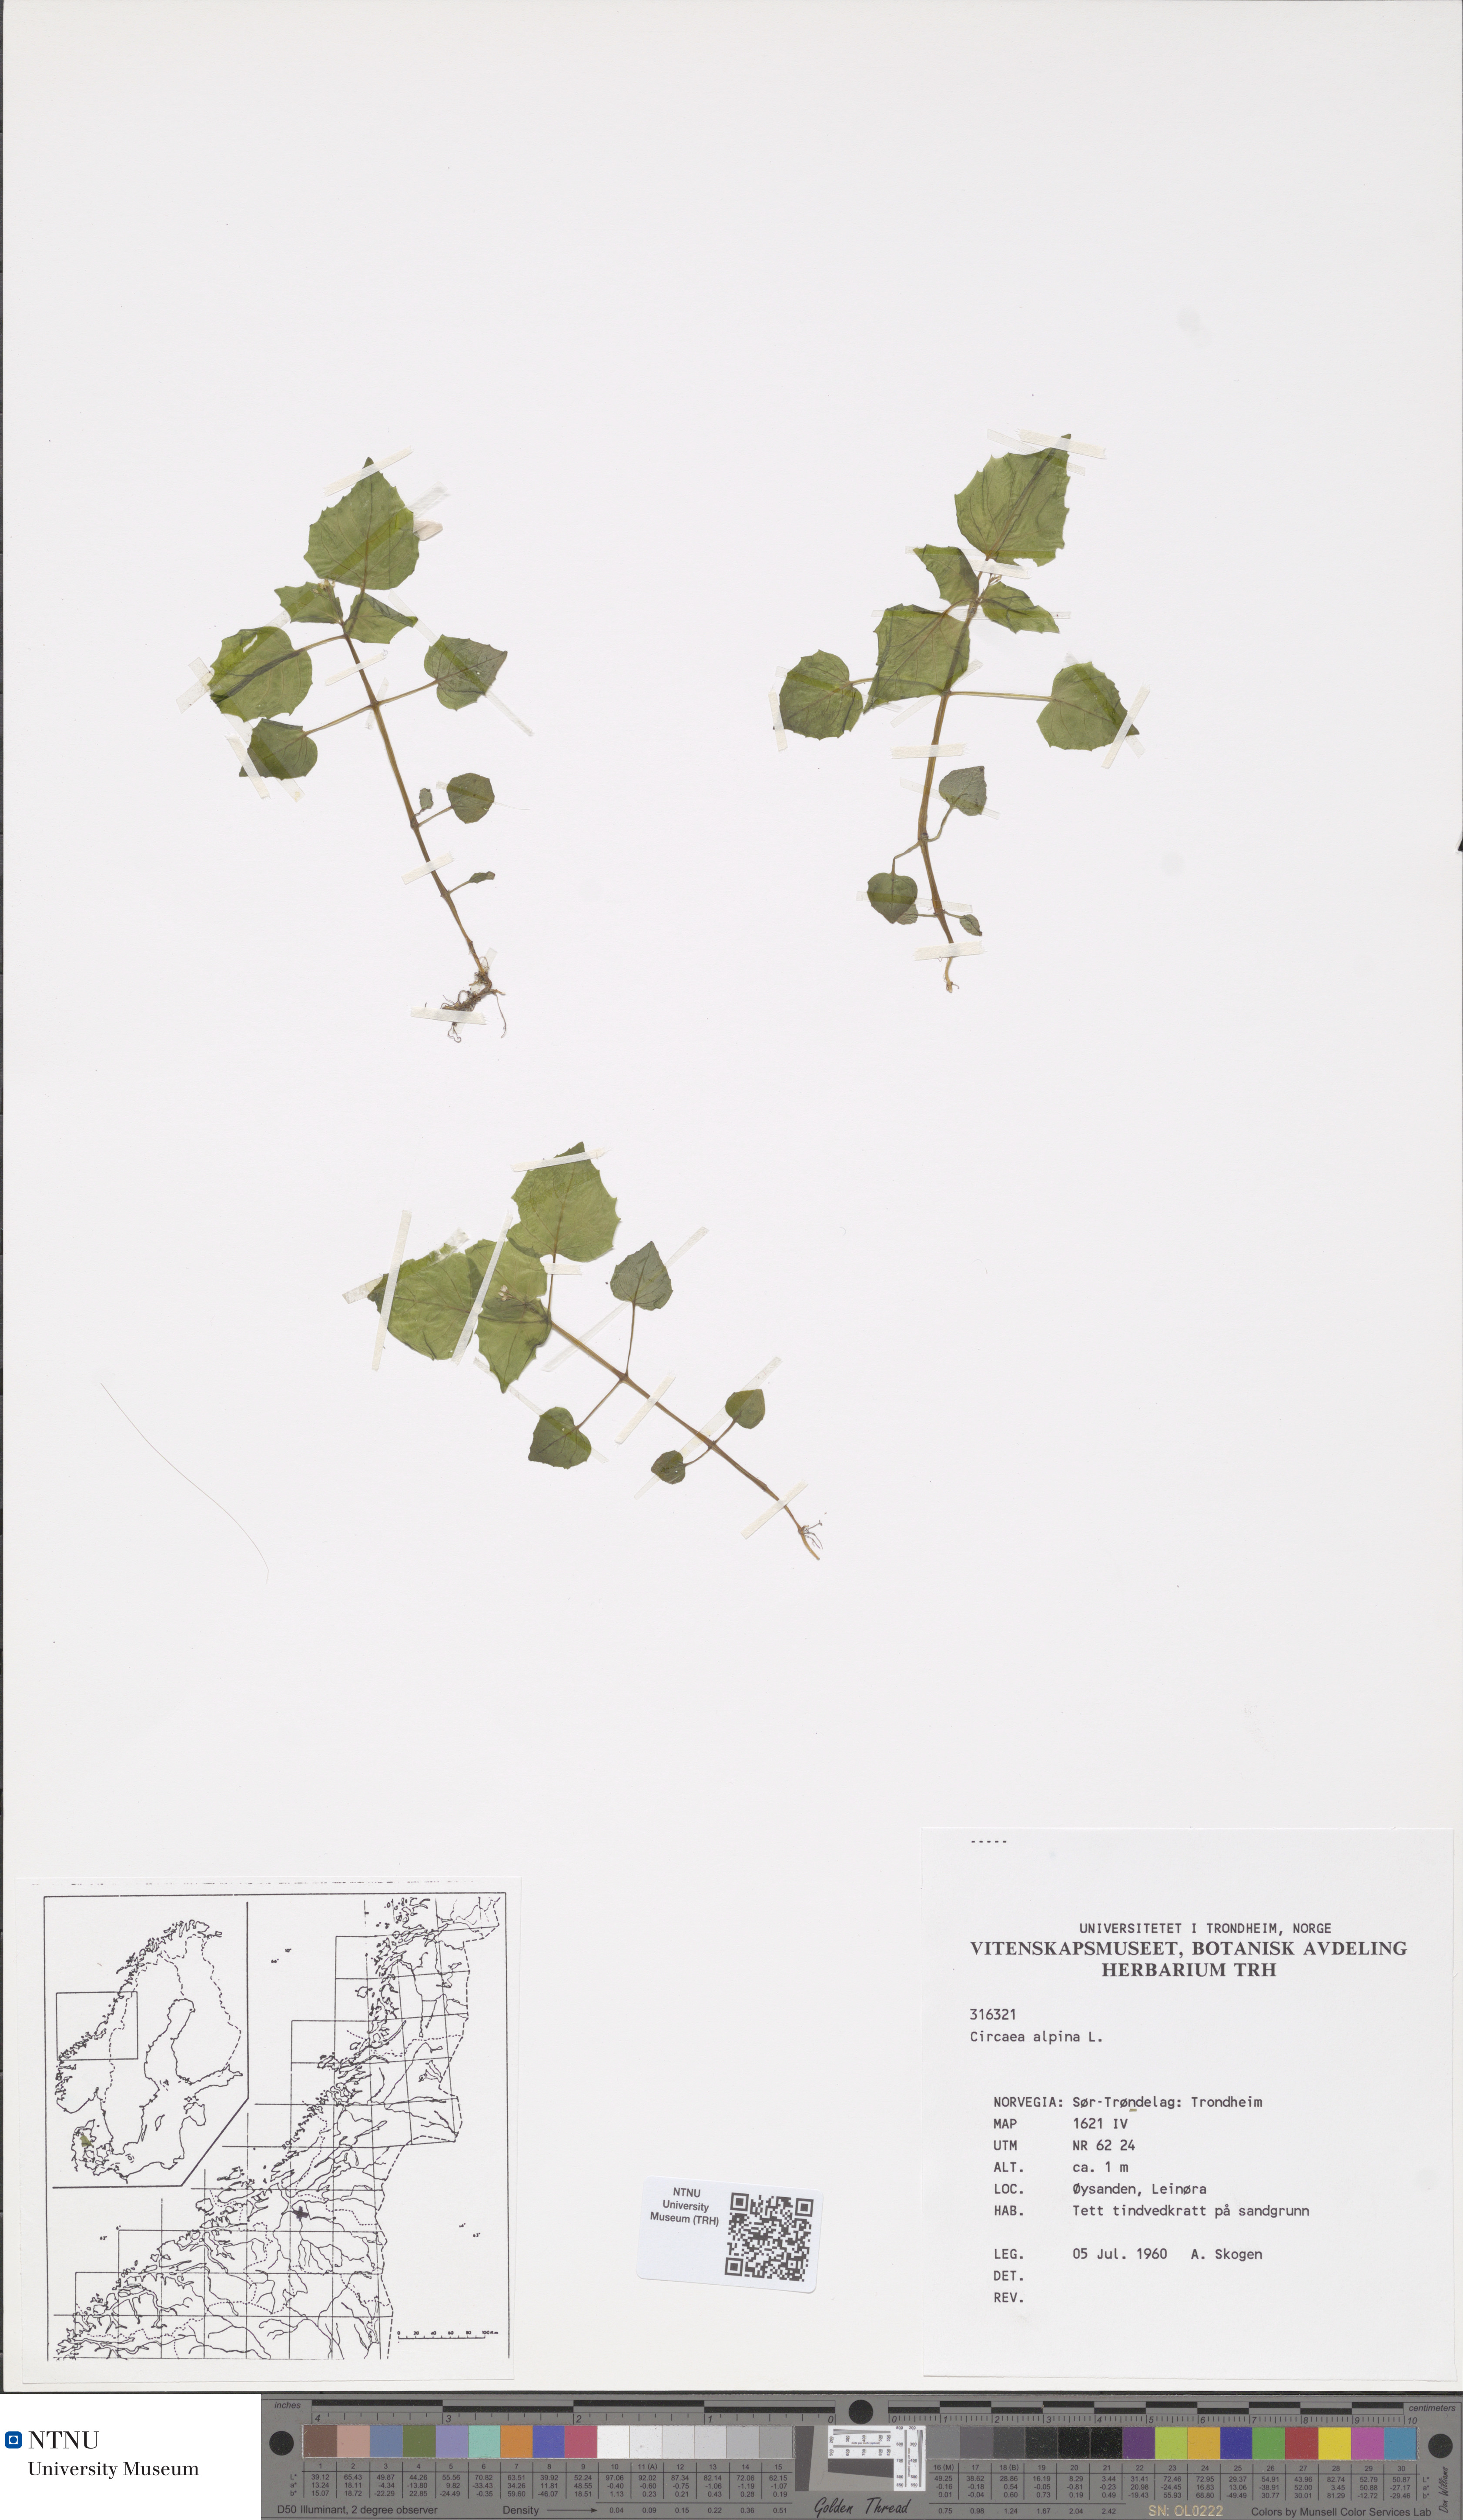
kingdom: Plantae
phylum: Tracheophyta
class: Magnoliopsida
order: Myrtales
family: Onagraceae
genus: Circaea
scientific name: Circaea alpina
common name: Alpine enchanter's-nightshade
